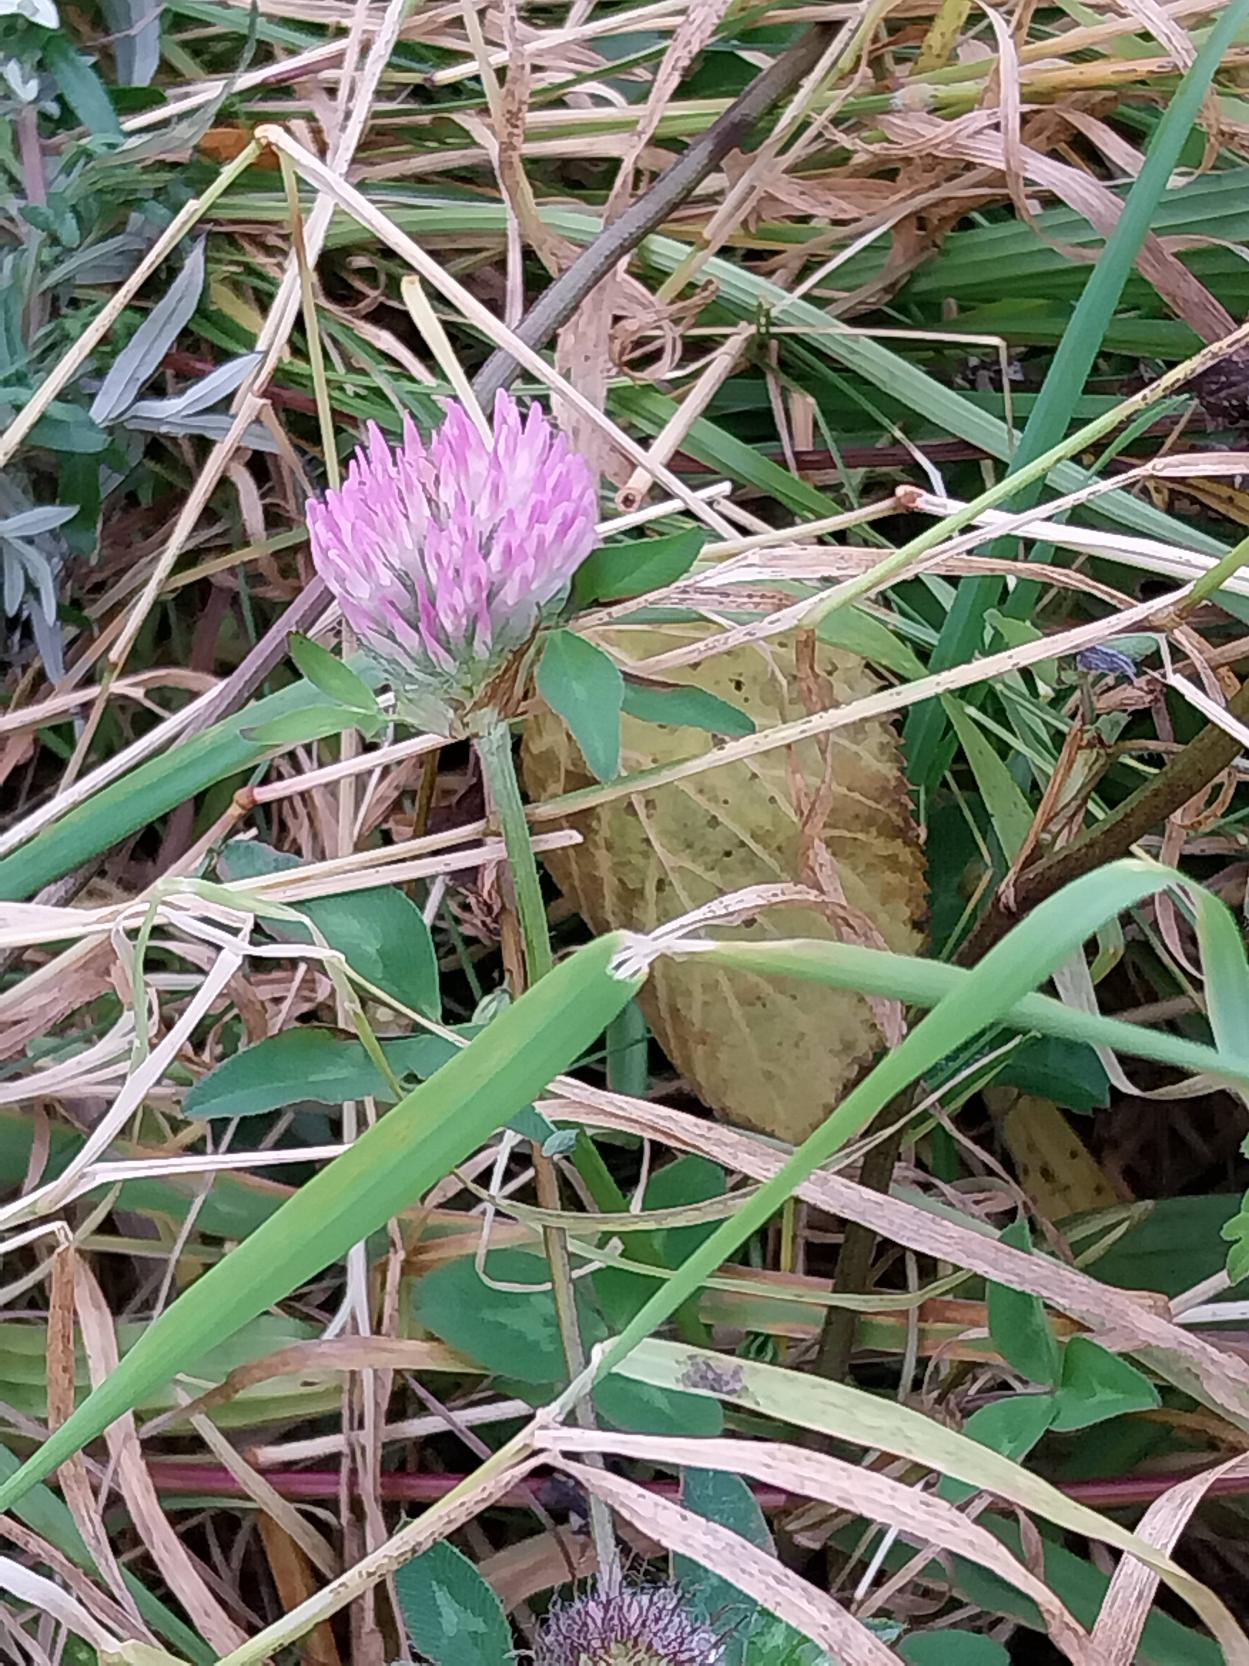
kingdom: Plantae
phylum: Tracheophyta
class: Magnoliopsida
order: Fabales
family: Fabaceae
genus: Trifolium
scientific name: Trifolium pratense
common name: Rød-kløver
